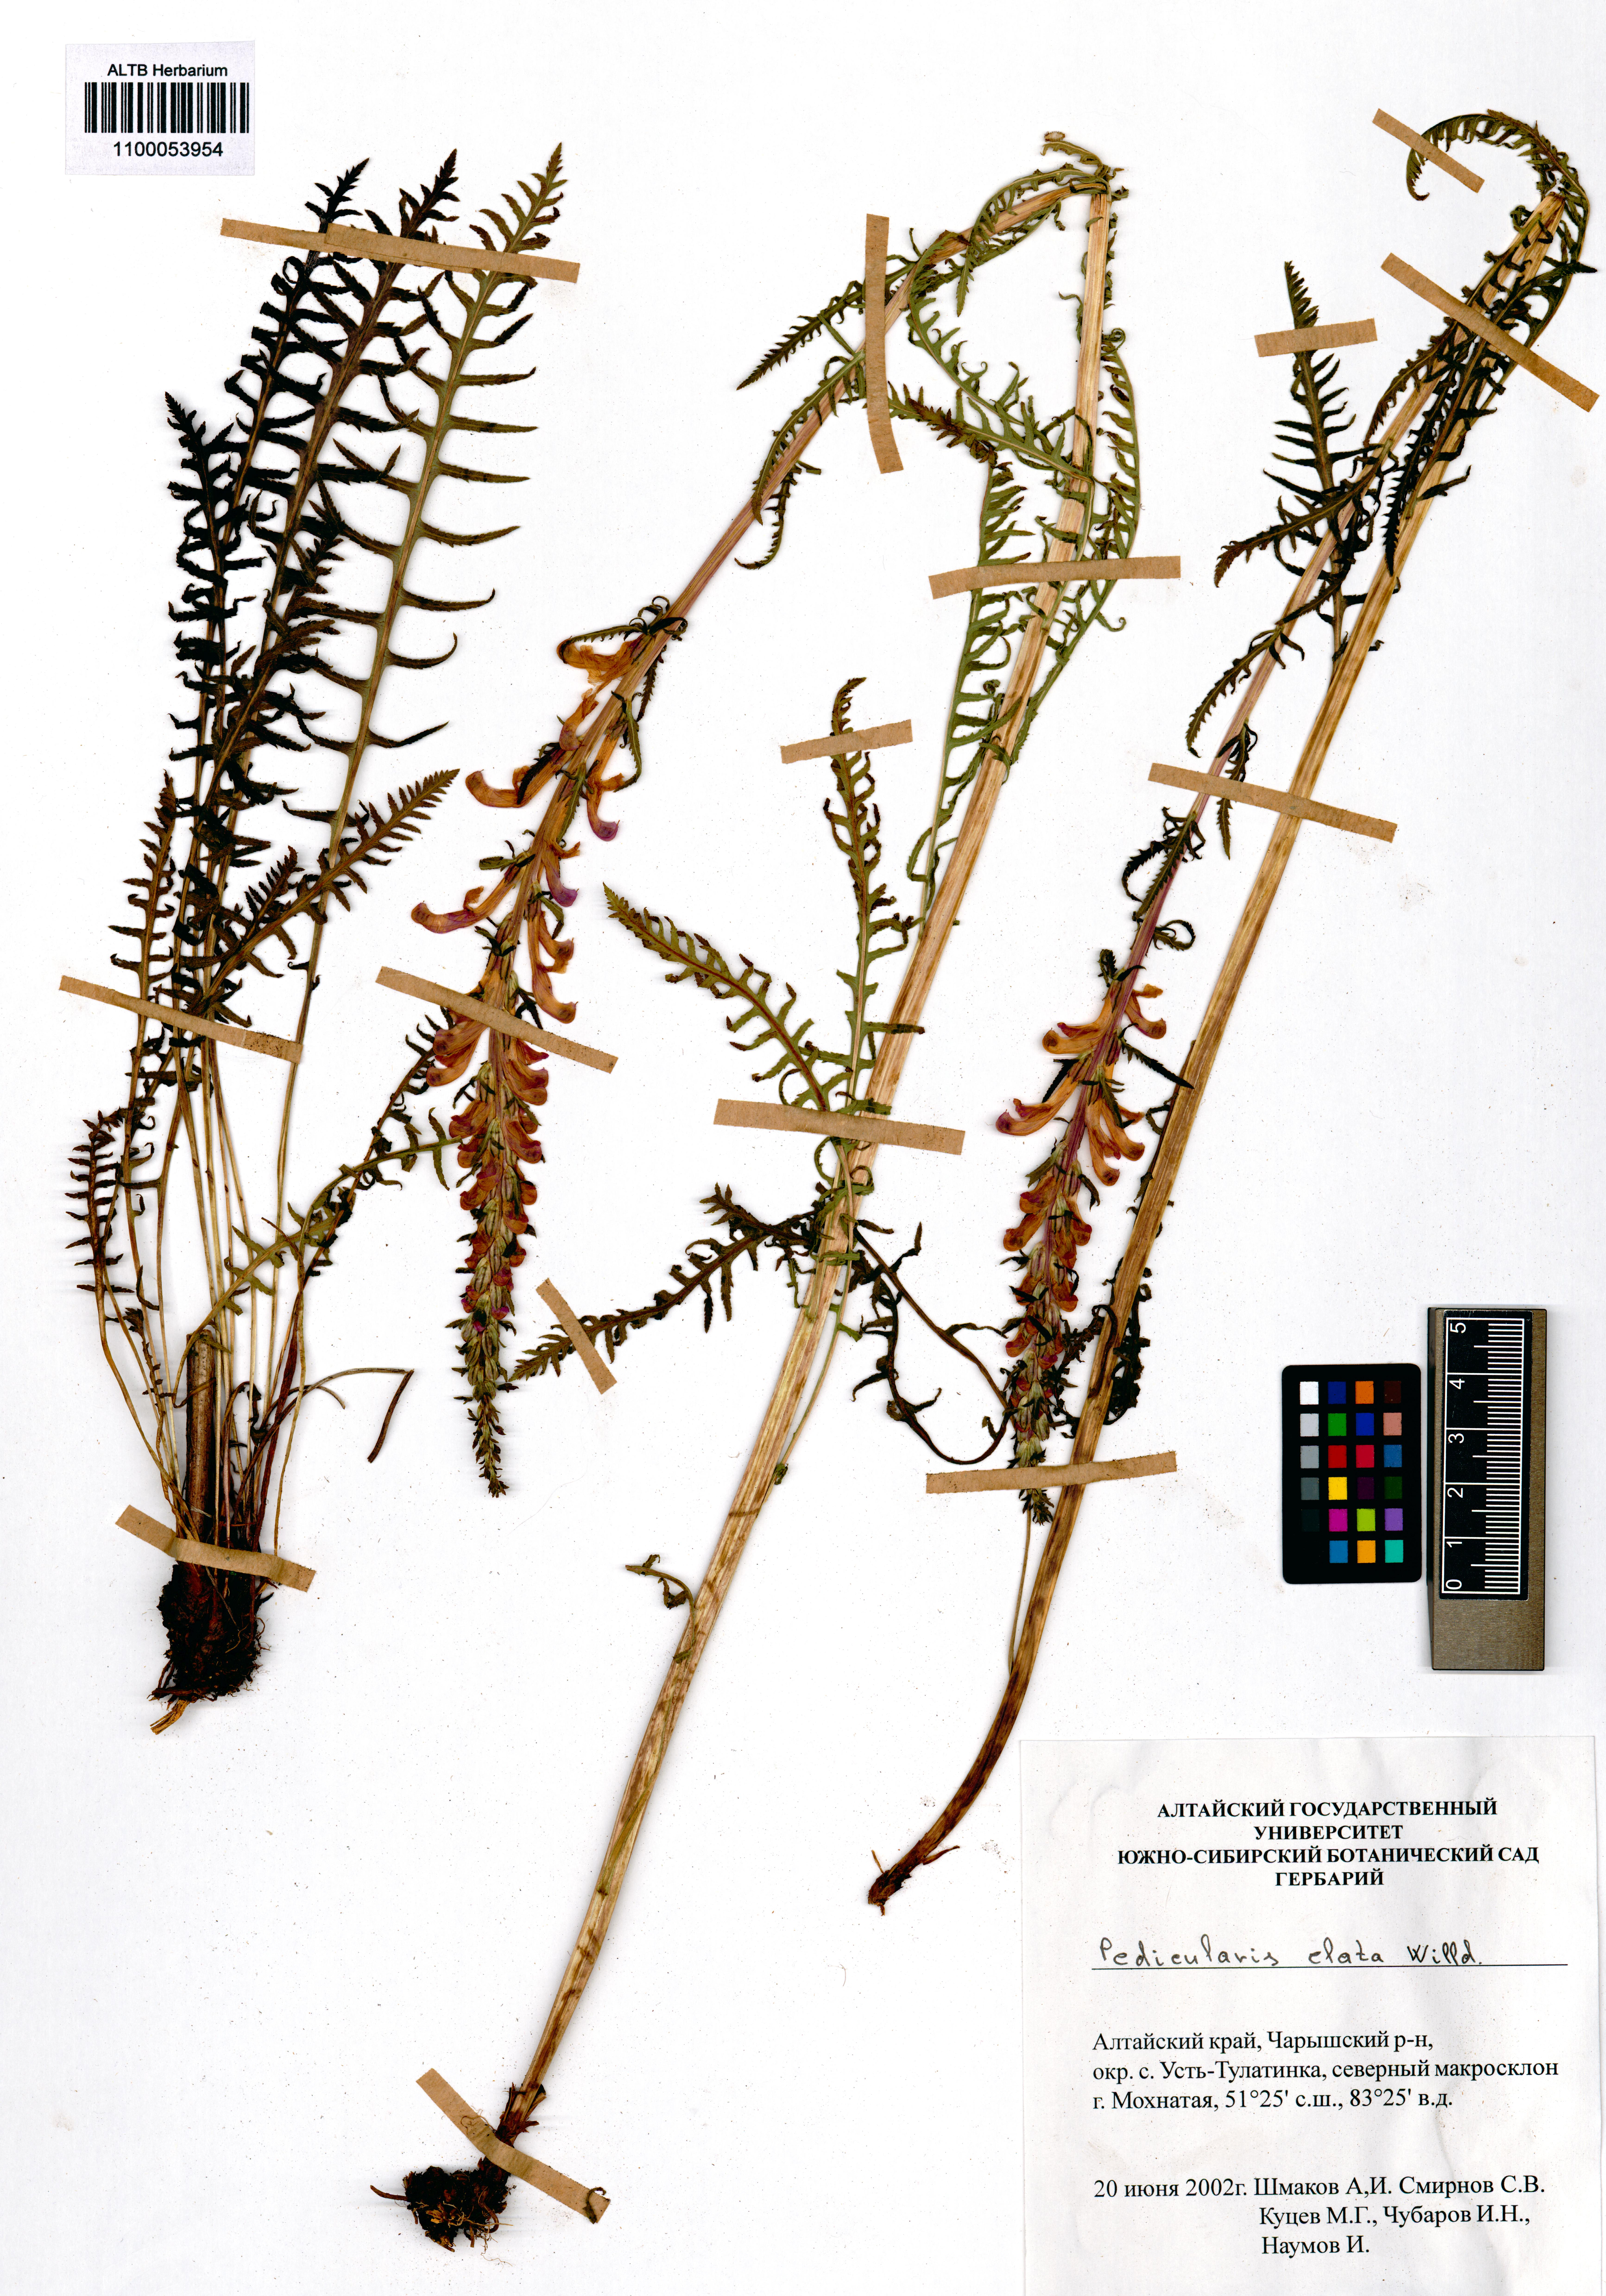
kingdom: Plantae
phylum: Tracheophyta
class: Magnoliopsida
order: Lamiales
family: Orobanchaceae
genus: Pedicularis
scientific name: Pedicularis elata
